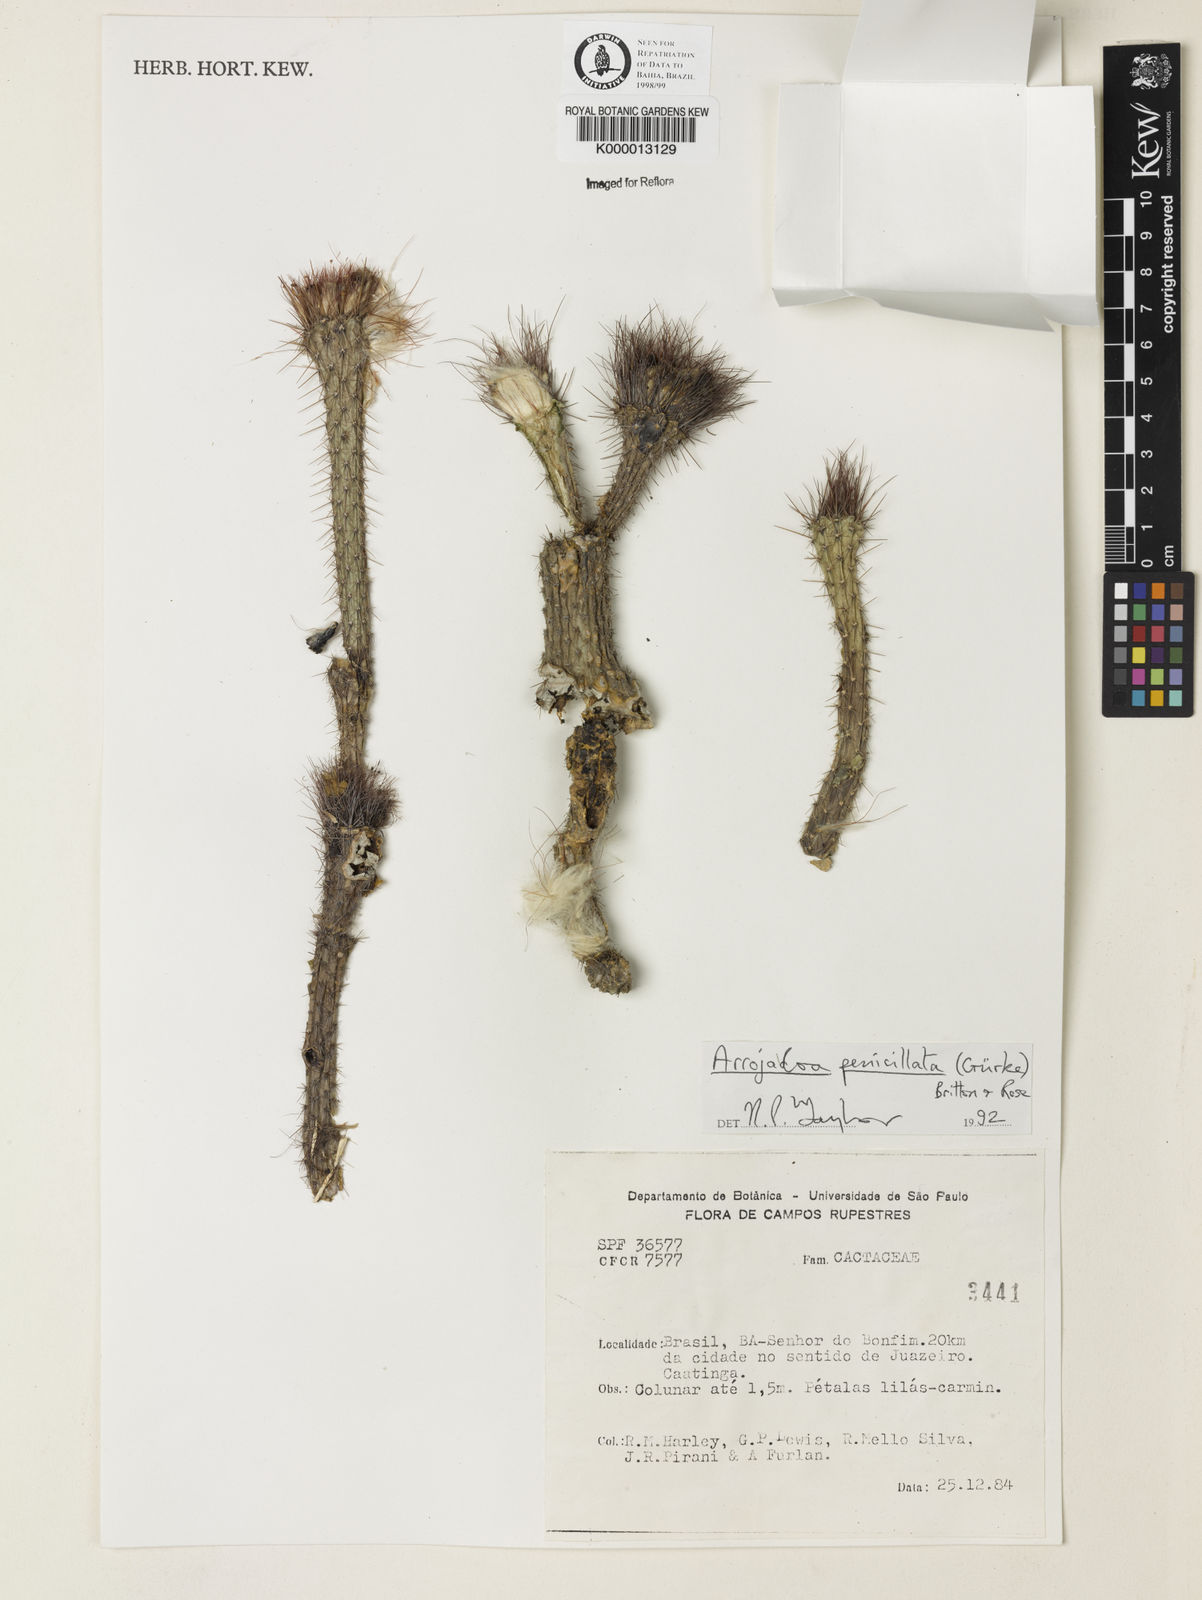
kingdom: Plantae
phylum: Tracheophyta
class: Magnoliopsida
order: Caryophyllales
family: Cactaceae
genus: Arrojadoa
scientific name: Arrojadoa penicillata
